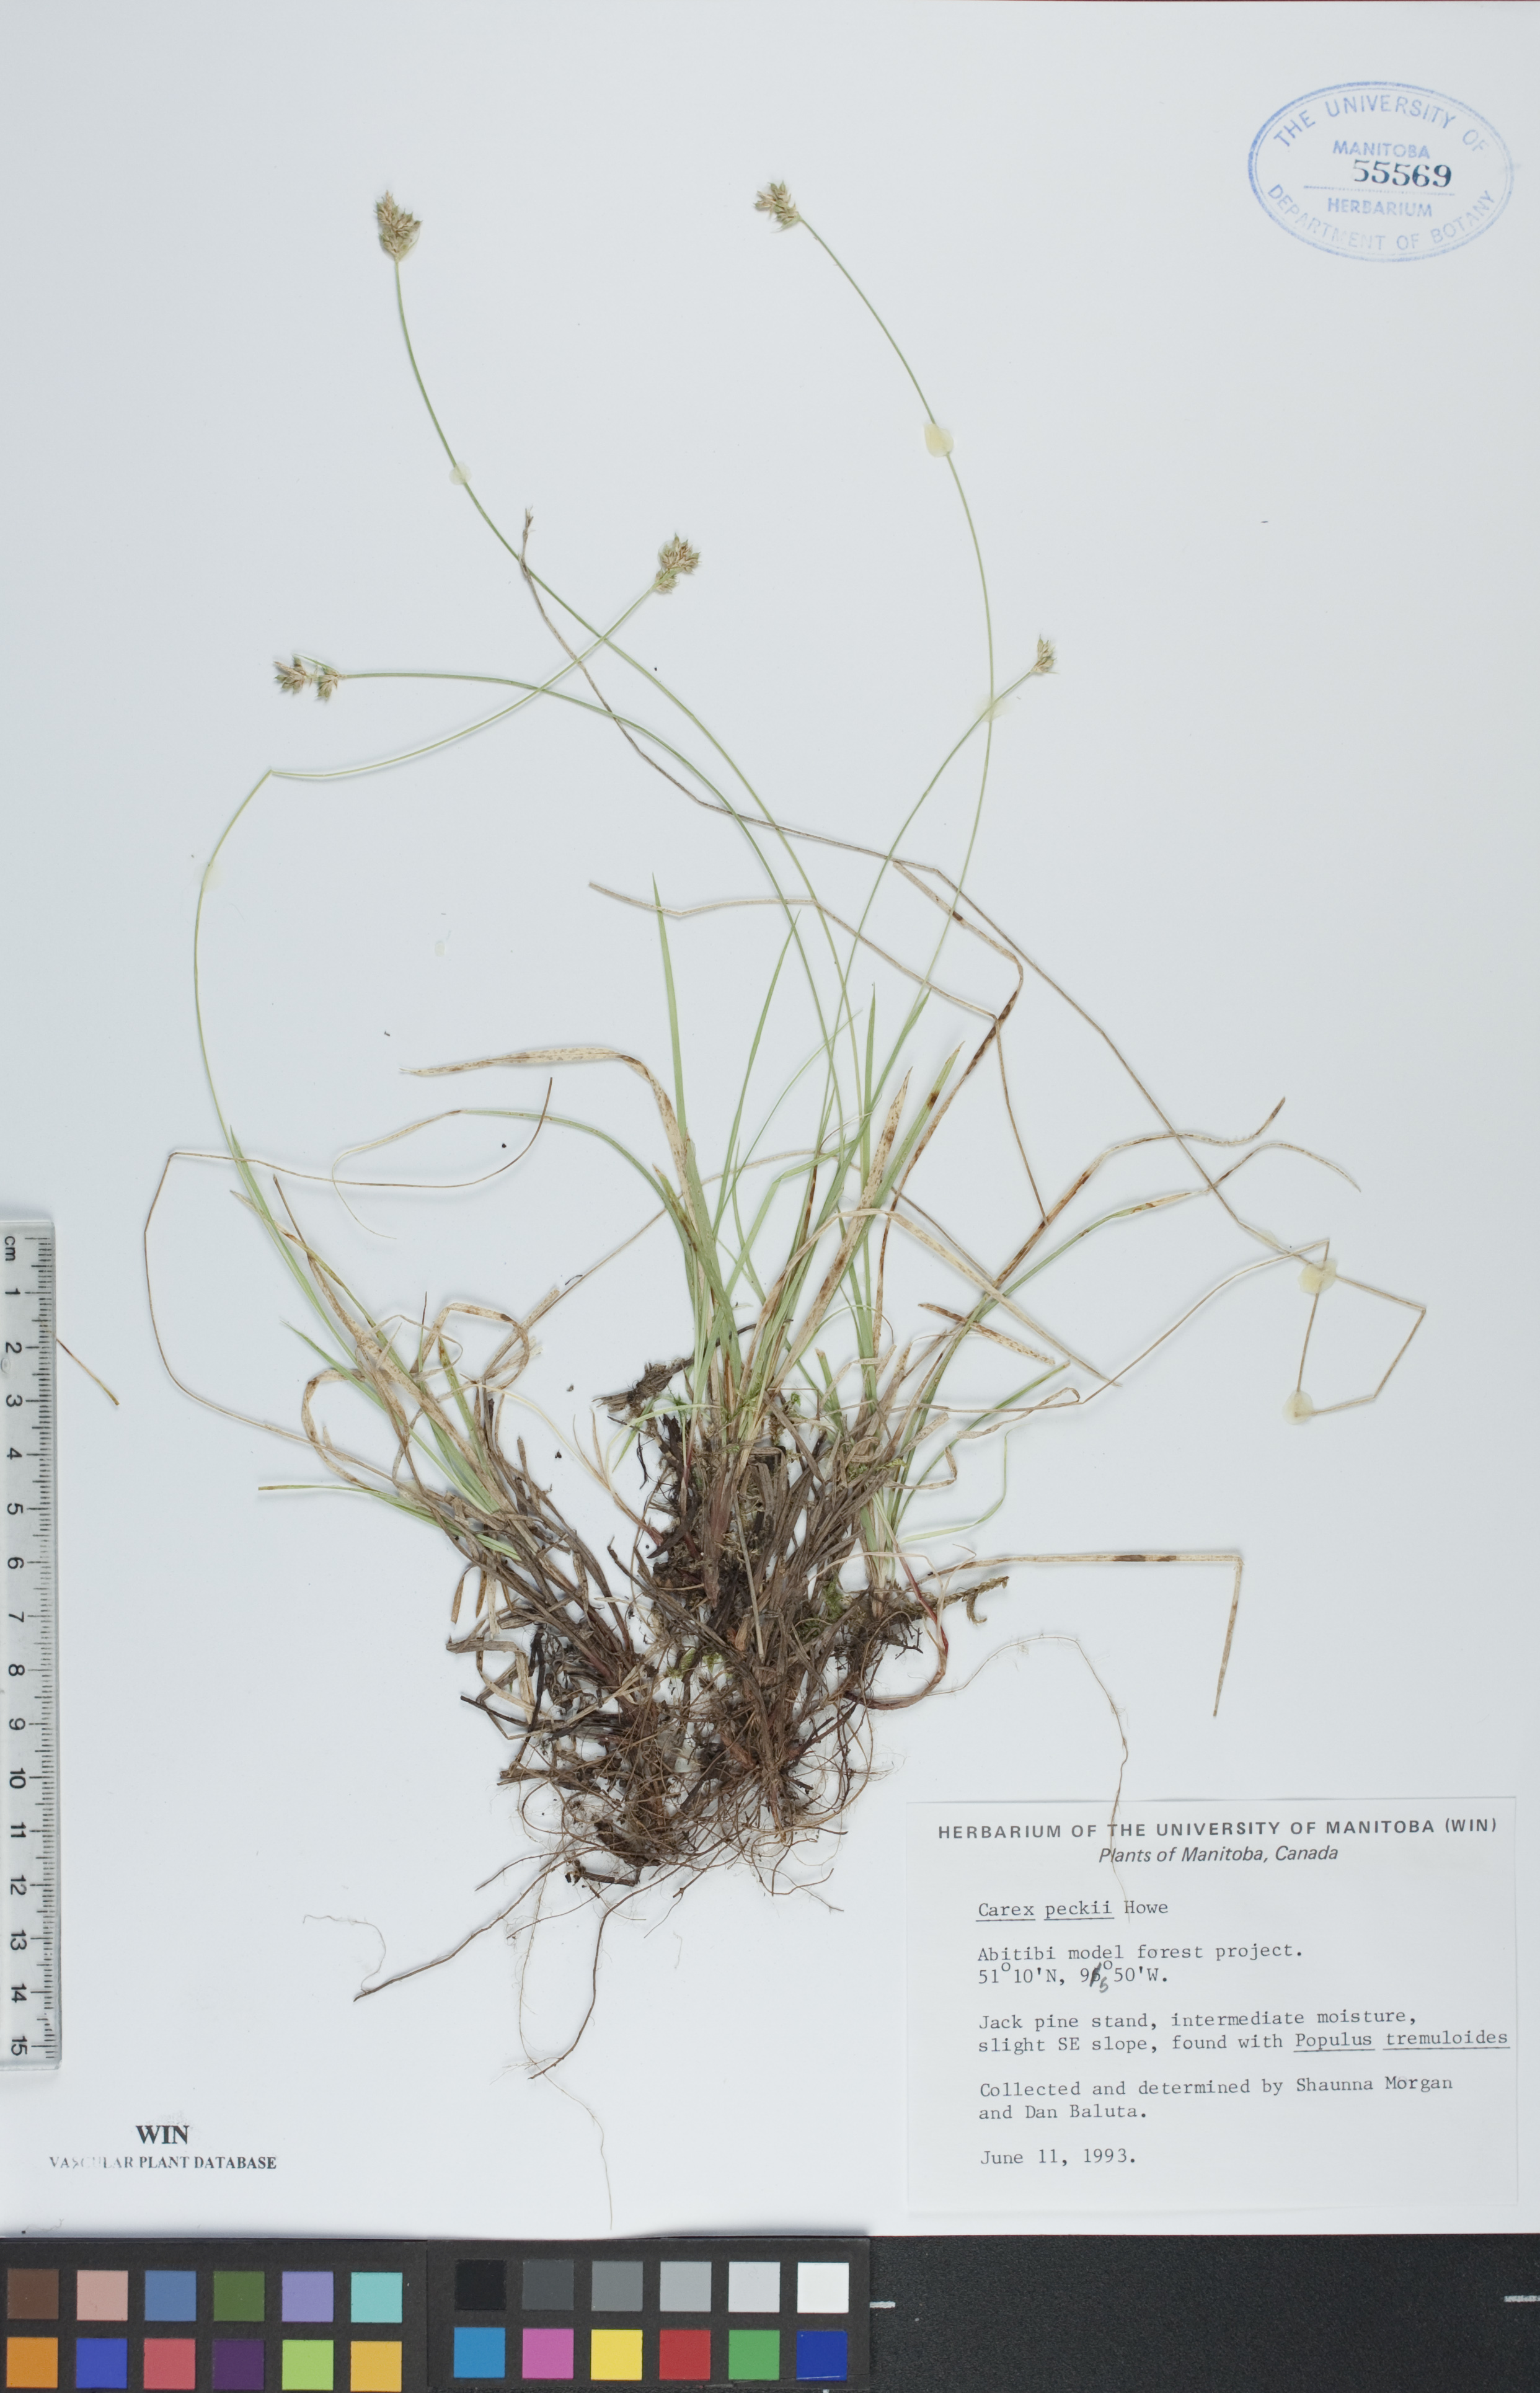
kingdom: Plantae
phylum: Tracheophyta
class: Liliopsida
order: Poales
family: Cyperaceae
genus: Carex
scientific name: Carex peckii
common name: Peck's oak sedge
